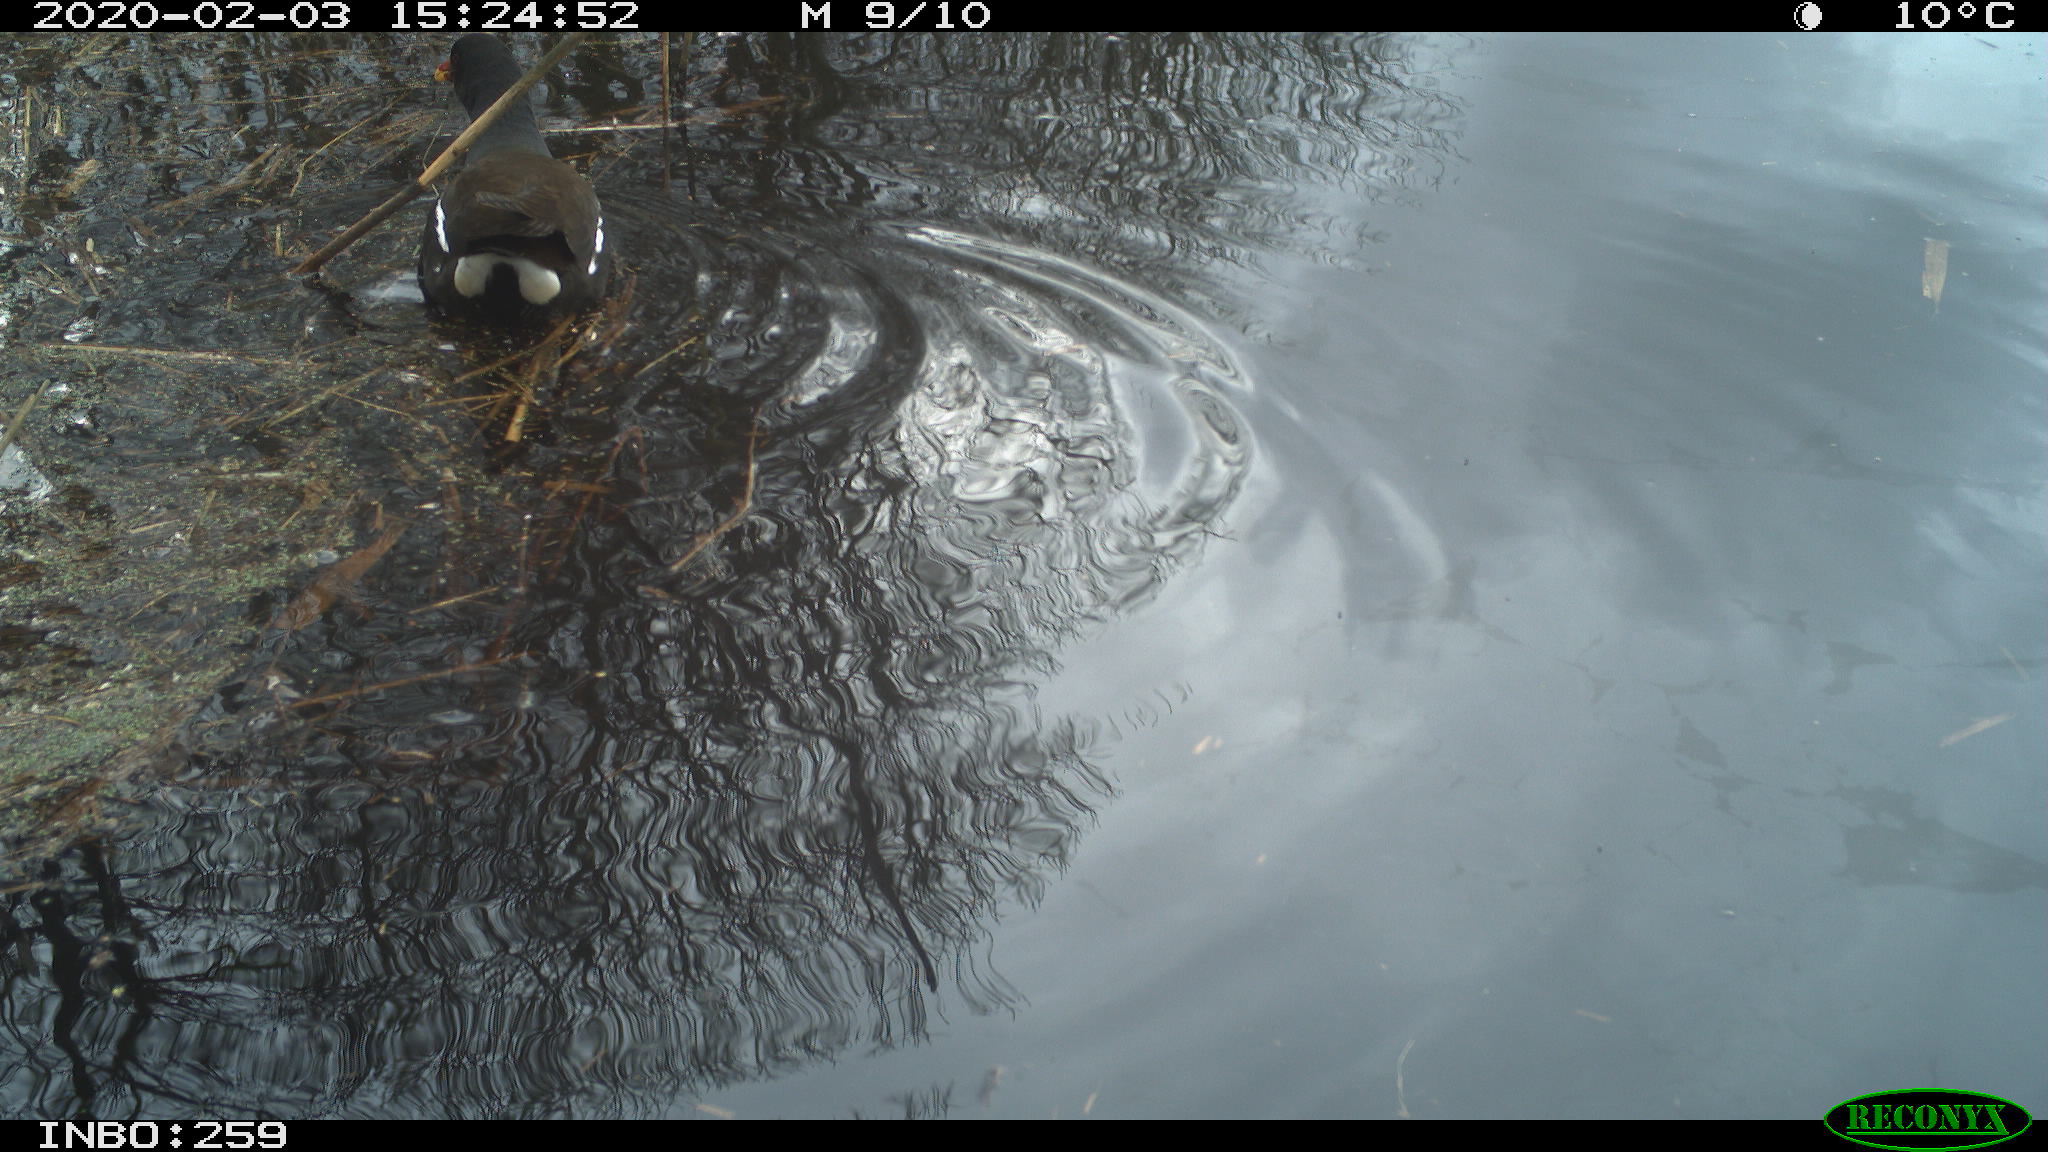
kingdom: Animalia
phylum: Chordata
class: Aves
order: Gruiformes
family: Rallidae
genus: Gallinula
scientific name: Gallinula chloropus
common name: Common moorhen
